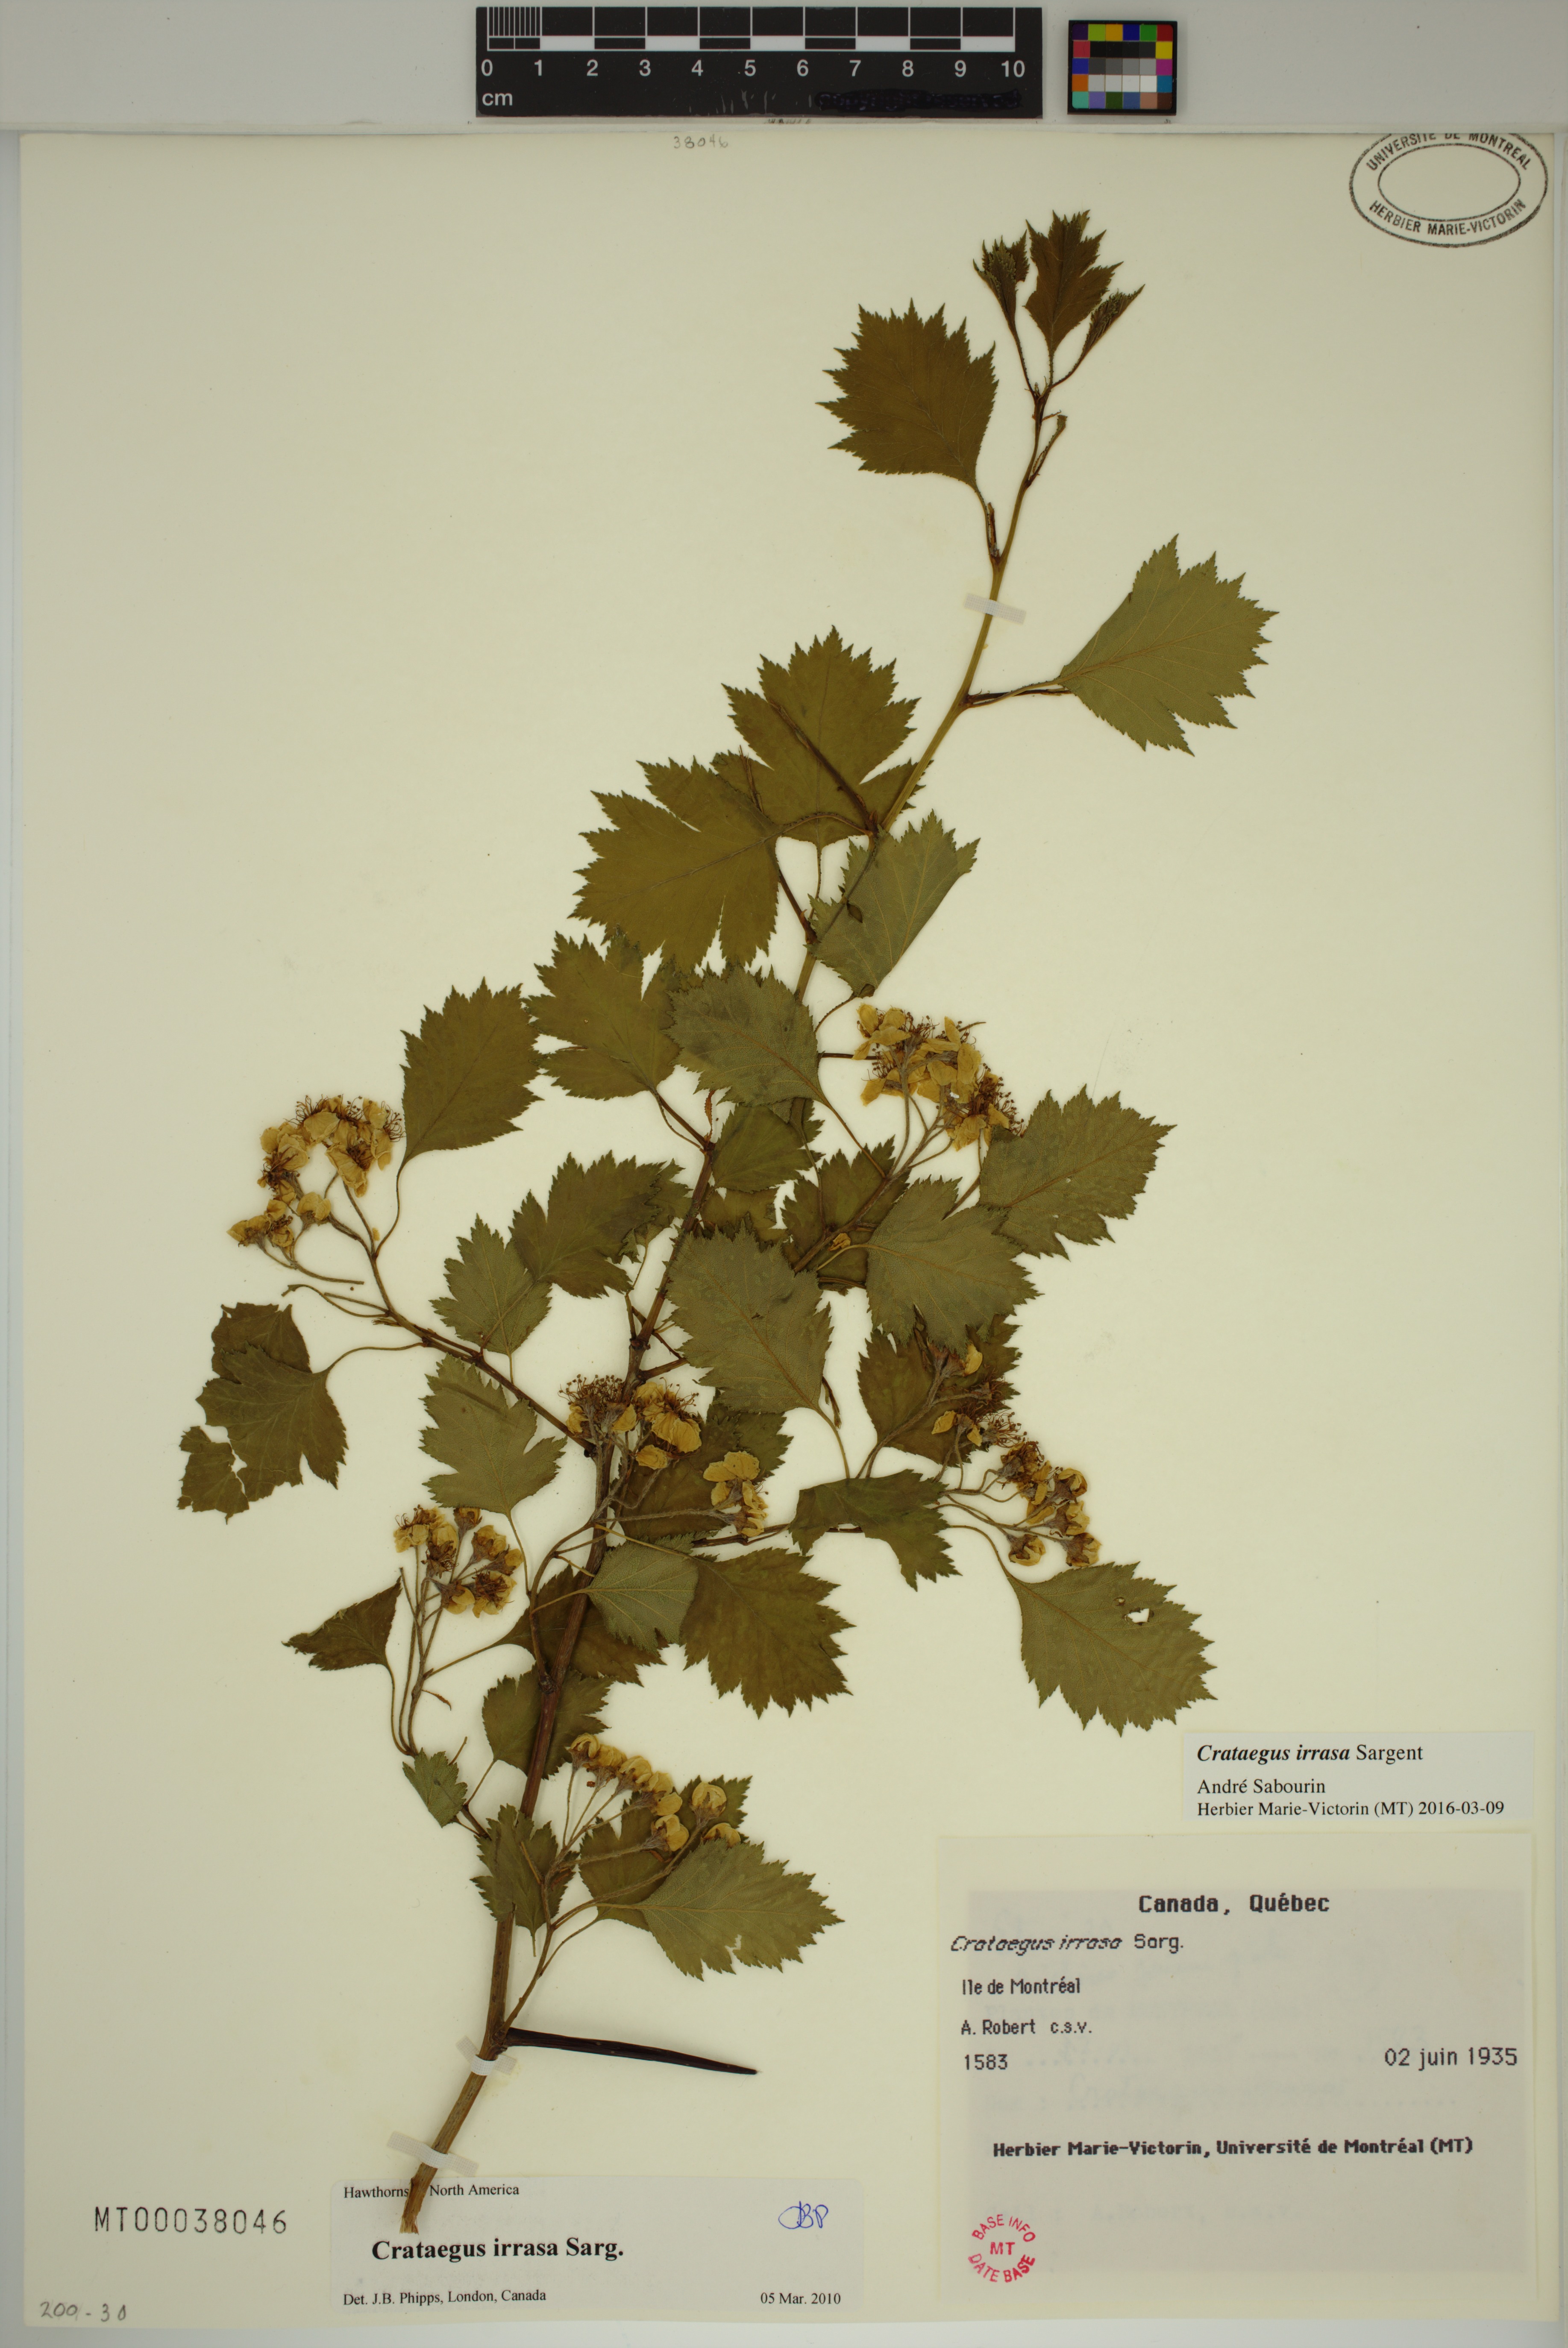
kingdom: Plantae
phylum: Tracheophyta
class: Magnoliopsida
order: Rosales
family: Rosaceae
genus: Crataegus
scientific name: Crataegus irrasa
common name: Unshorn hawthorn
